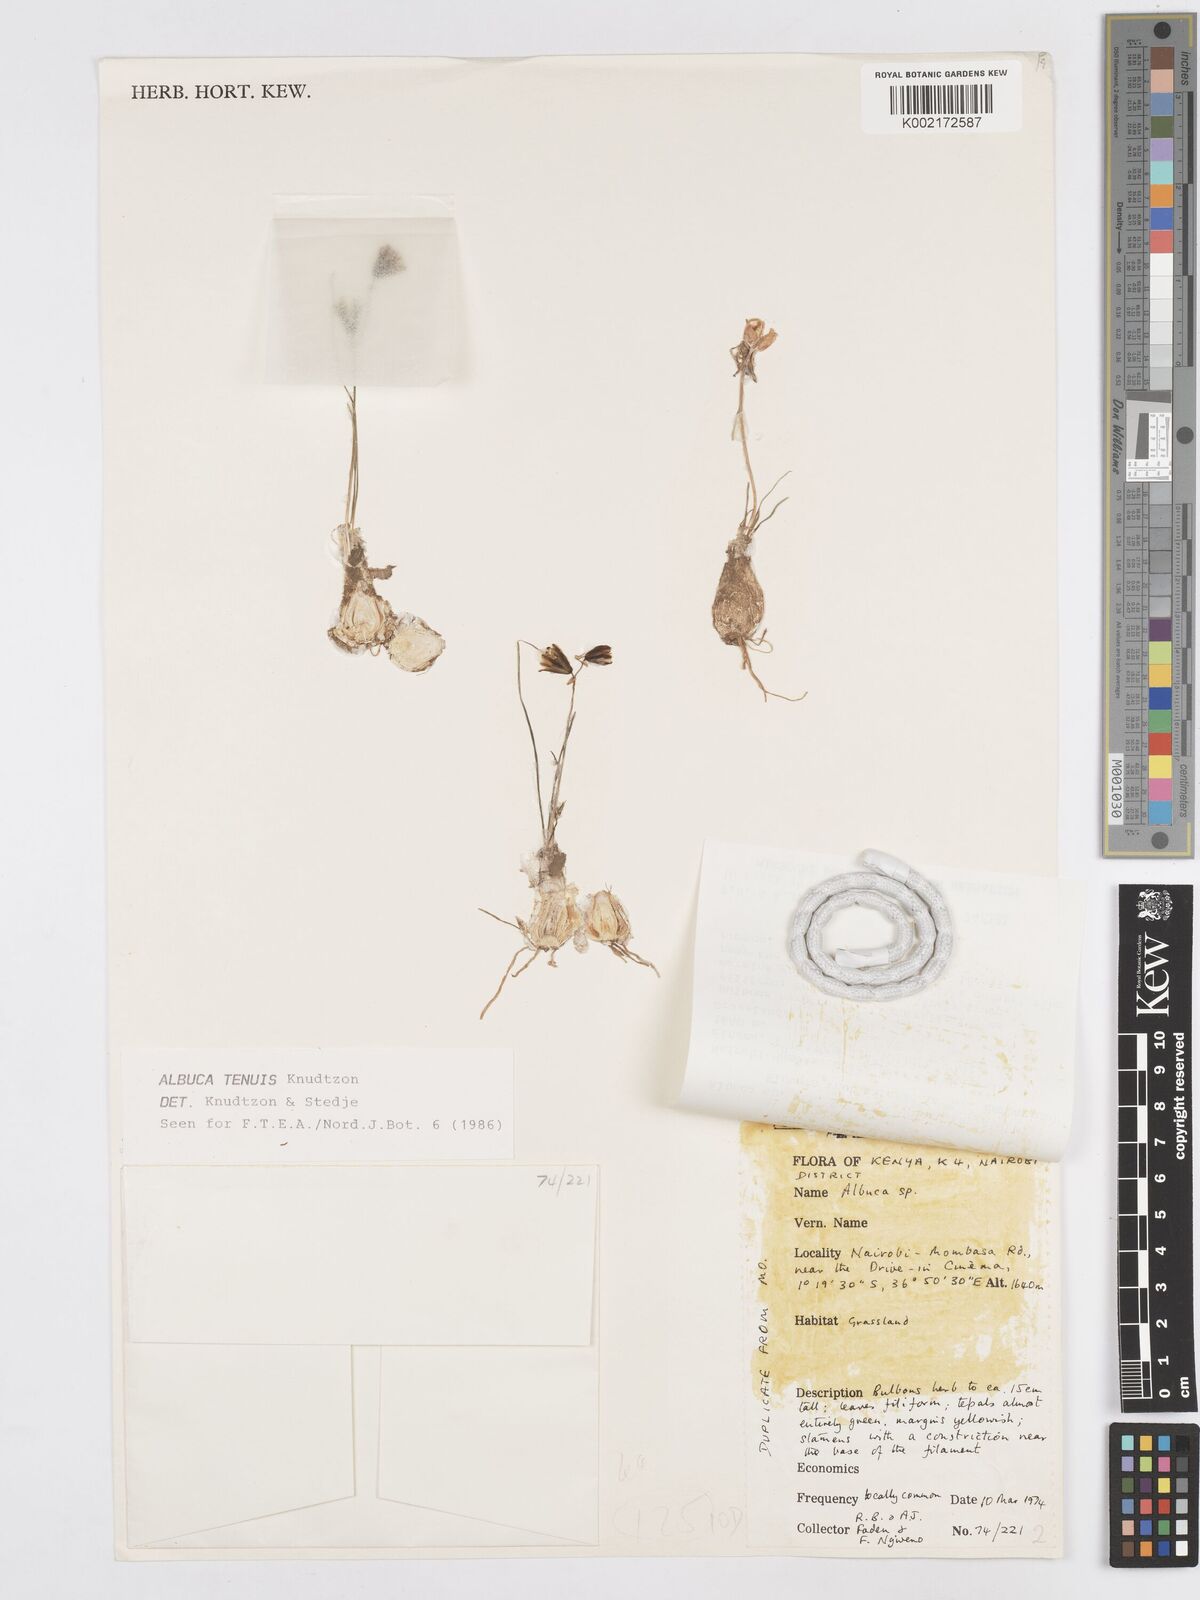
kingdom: Plantae
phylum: Tracheophyta
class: Liliopsida
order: Asparagales
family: Asparagaceae
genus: Albuca
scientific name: Albuca tenuis
